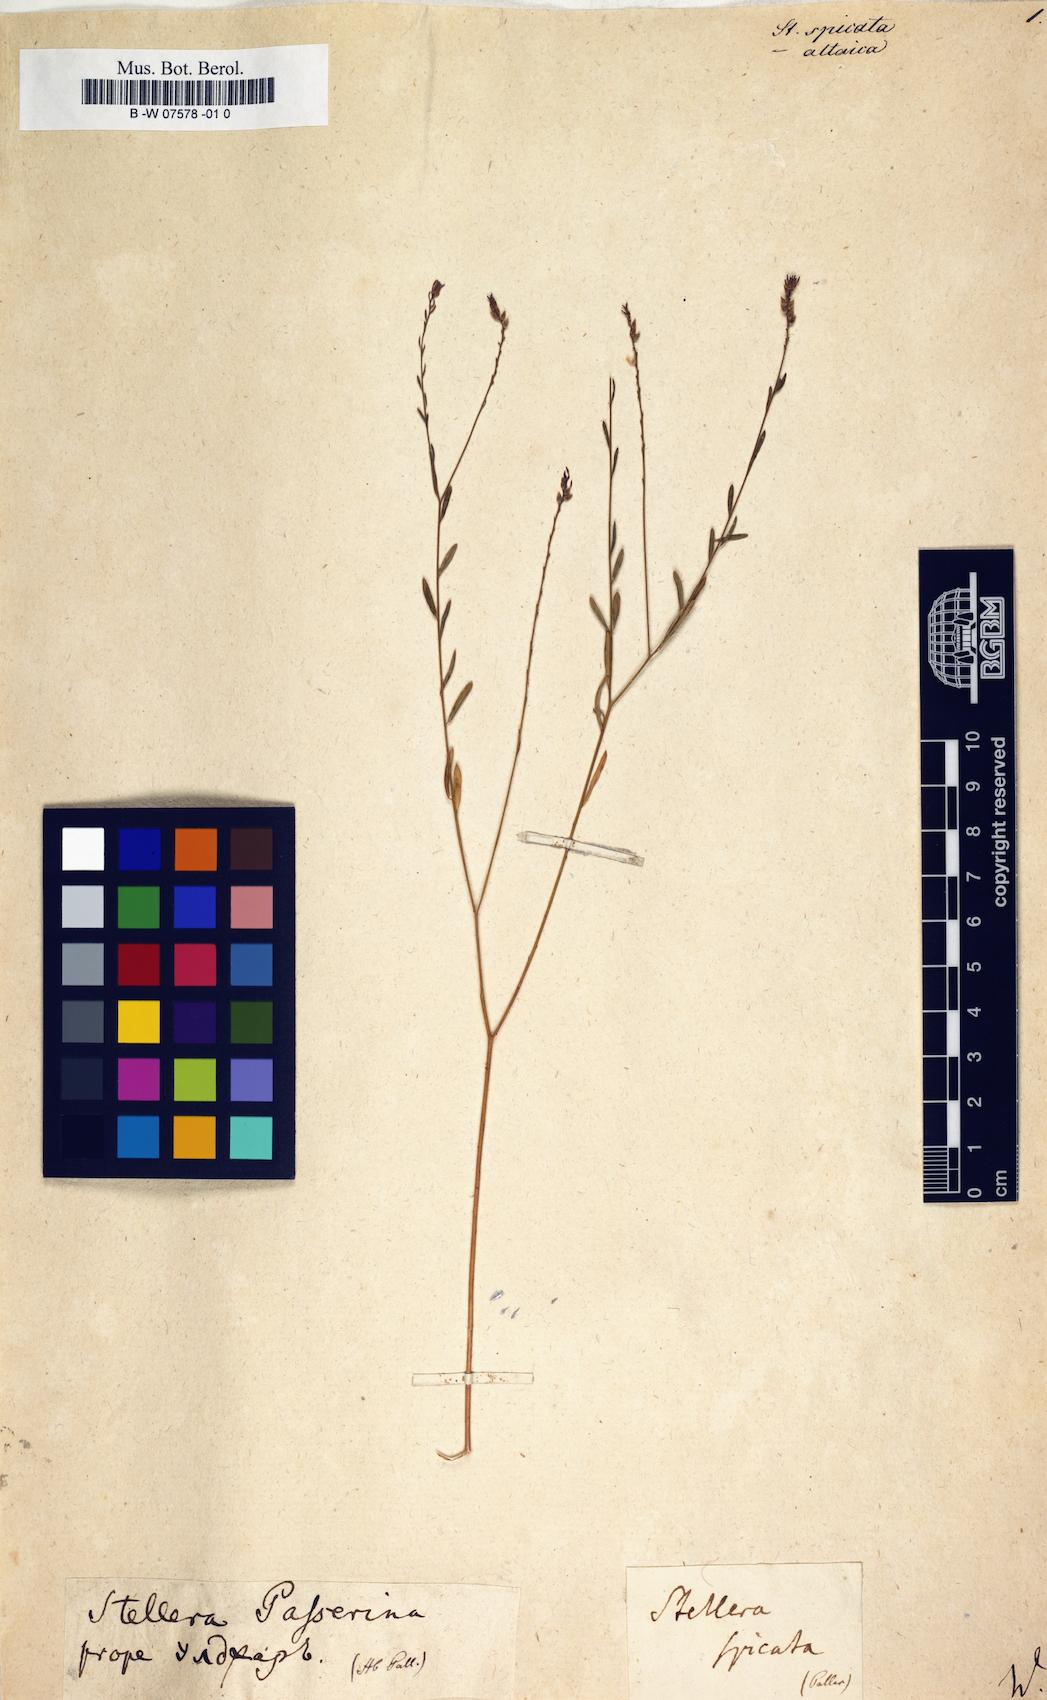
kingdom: Plantae
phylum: Tracheophyta
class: Magnoliopsida
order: Malvales
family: Thymelaeaceae
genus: Diarthron
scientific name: Diarthron lessertii
